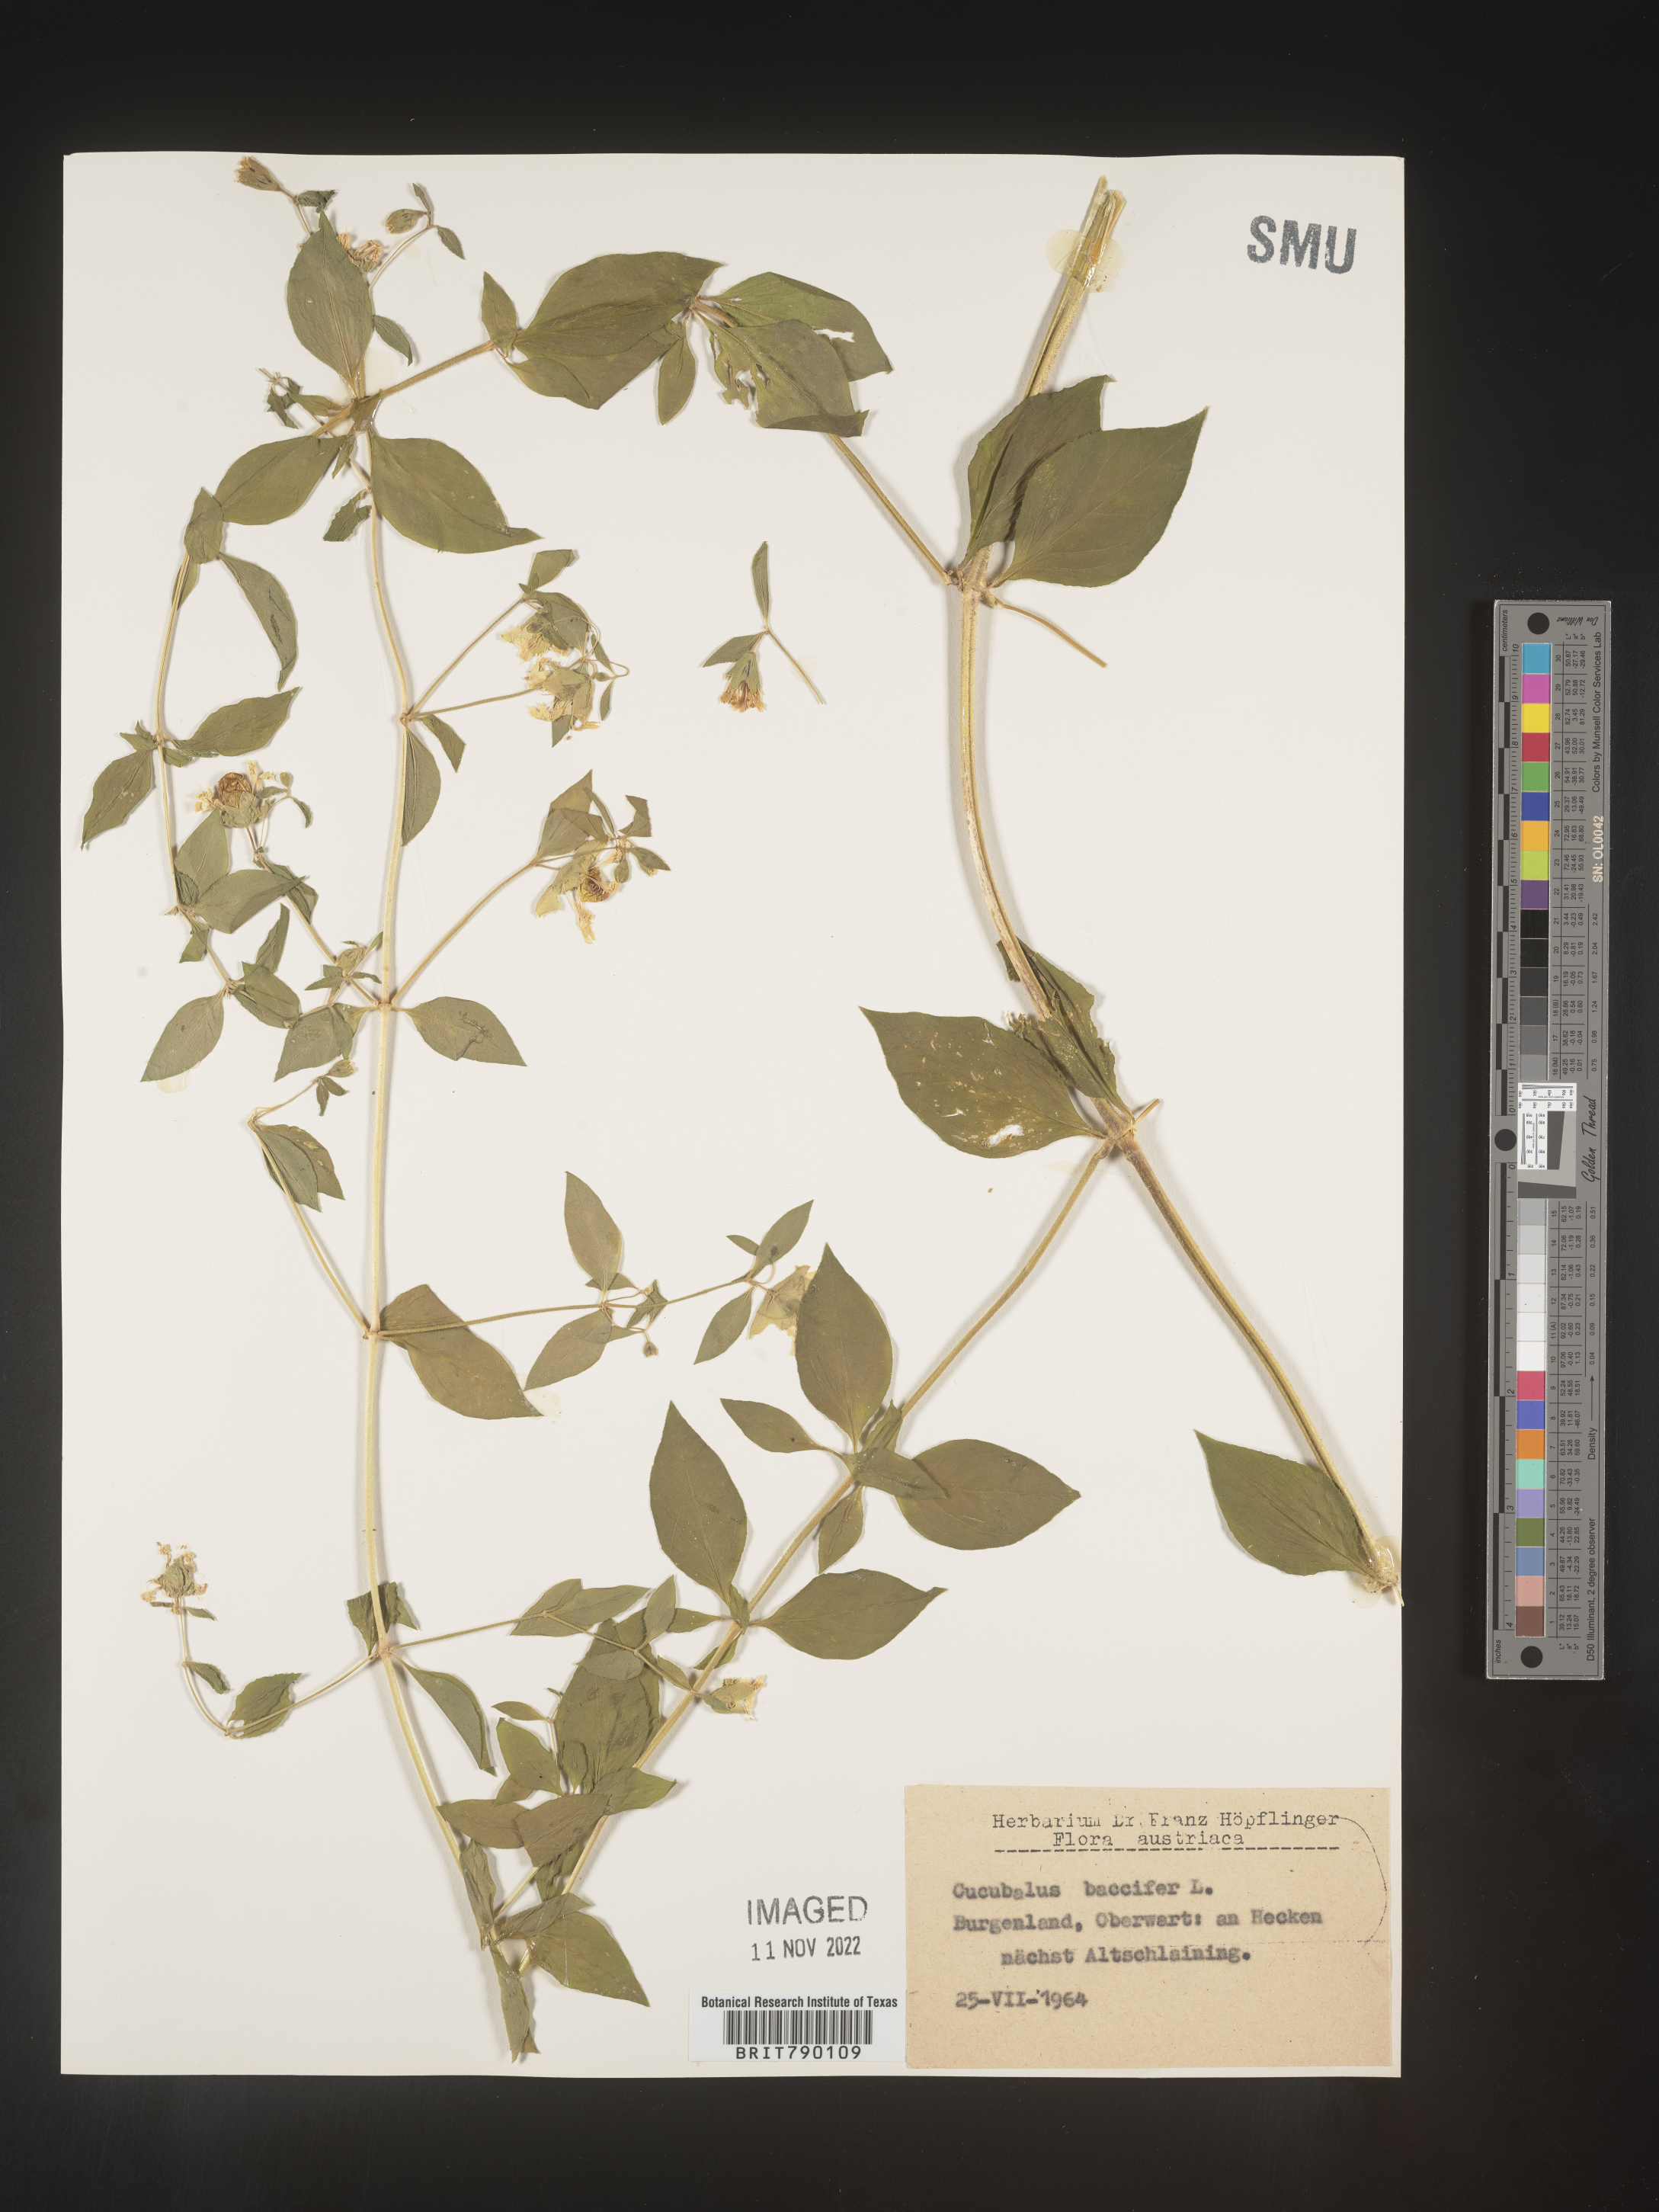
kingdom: Animalia
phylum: Cnidaria
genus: Cucubalus
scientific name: Cucubalus
